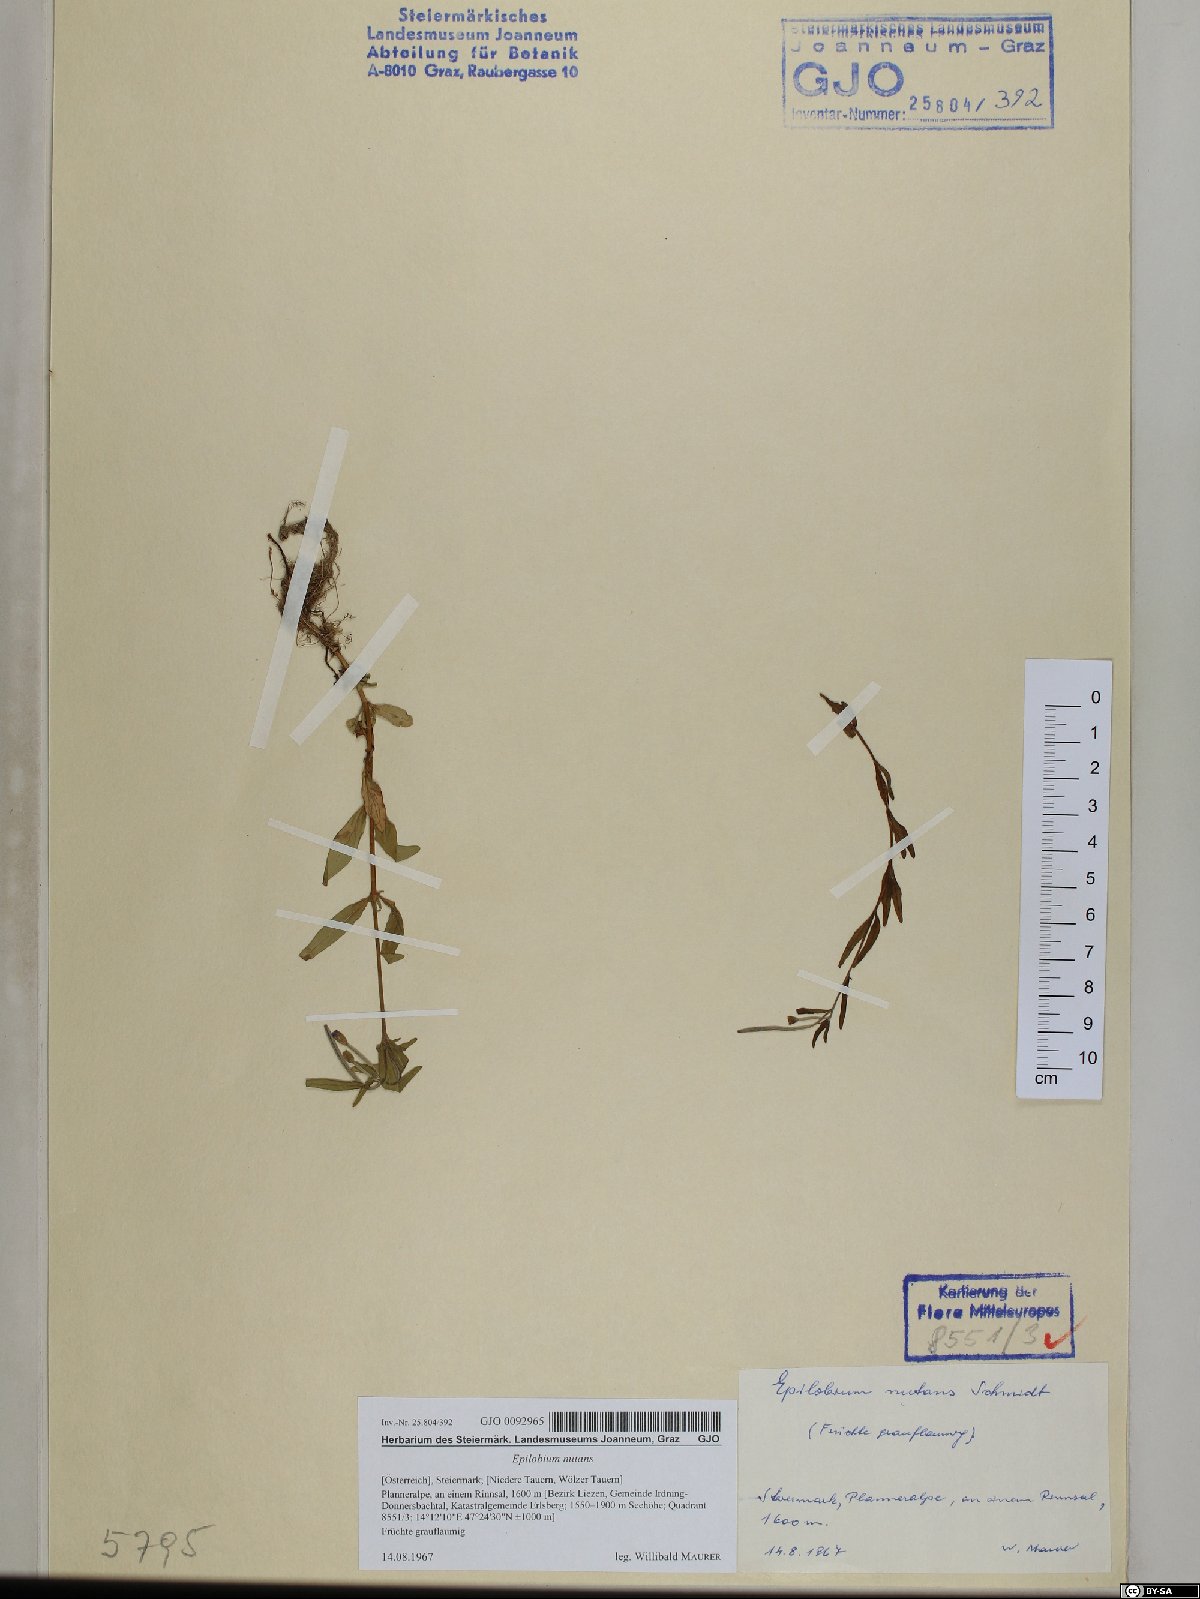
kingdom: Plantae
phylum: Tracheophyta
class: Magnoliopsida
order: Myrtales
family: Onagraceae
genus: Epilobium
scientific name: Epilobium nutans
